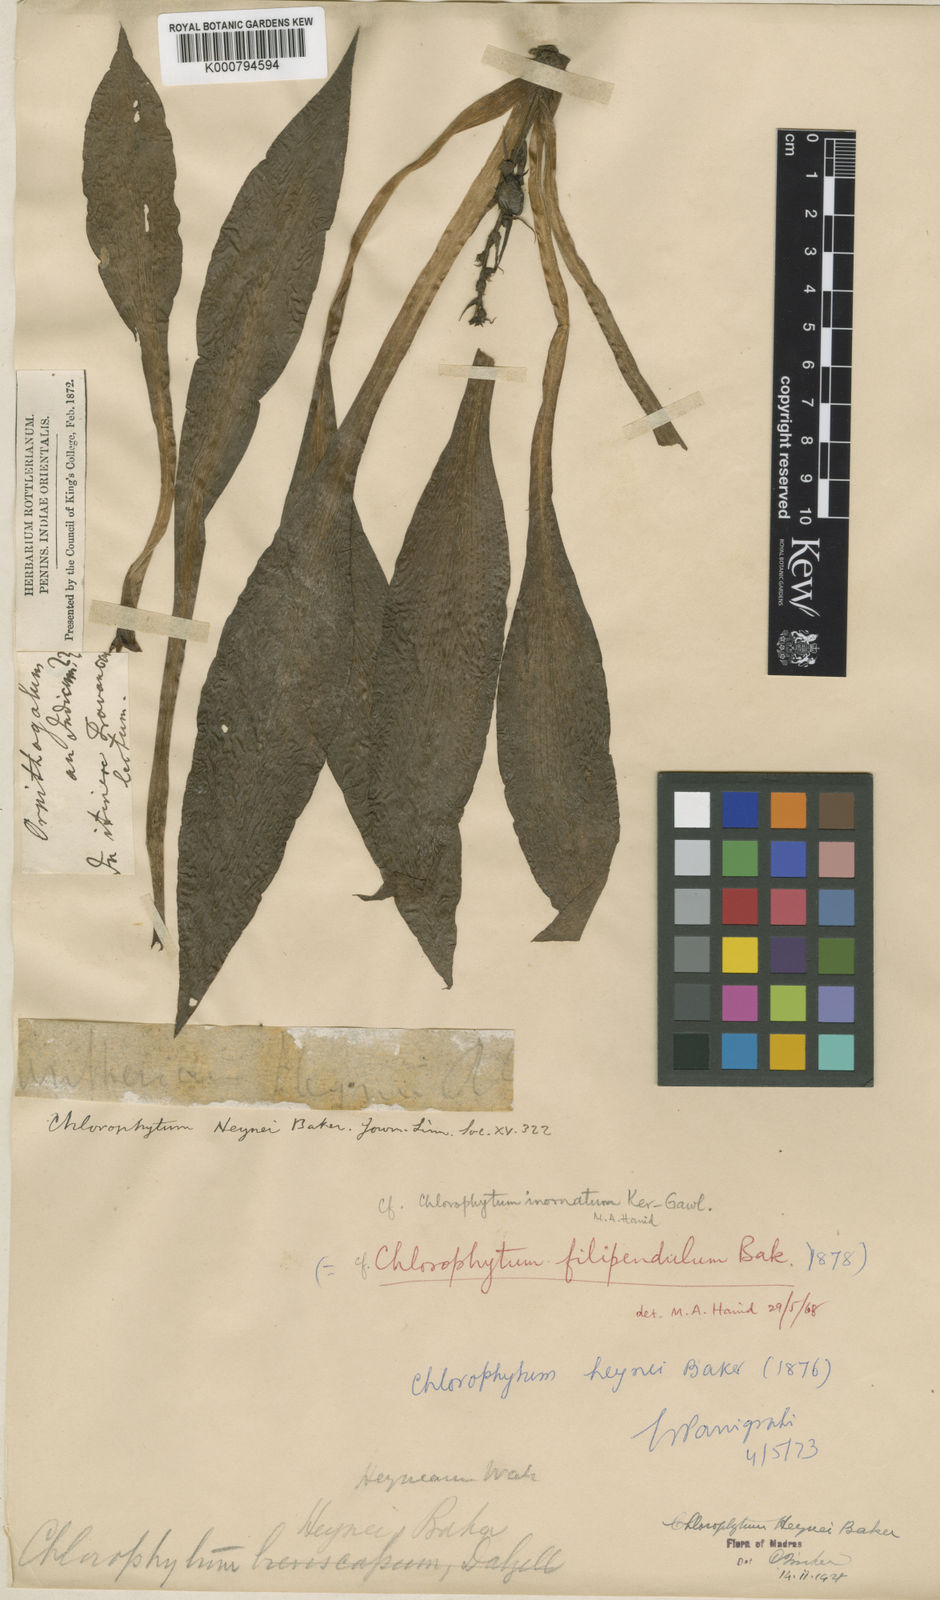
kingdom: Plantae
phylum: Tracheophyta
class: Liliopsida
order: Asparagales
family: Asparagaceae
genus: Chlorophytum
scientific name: Chlorophytum heynei
